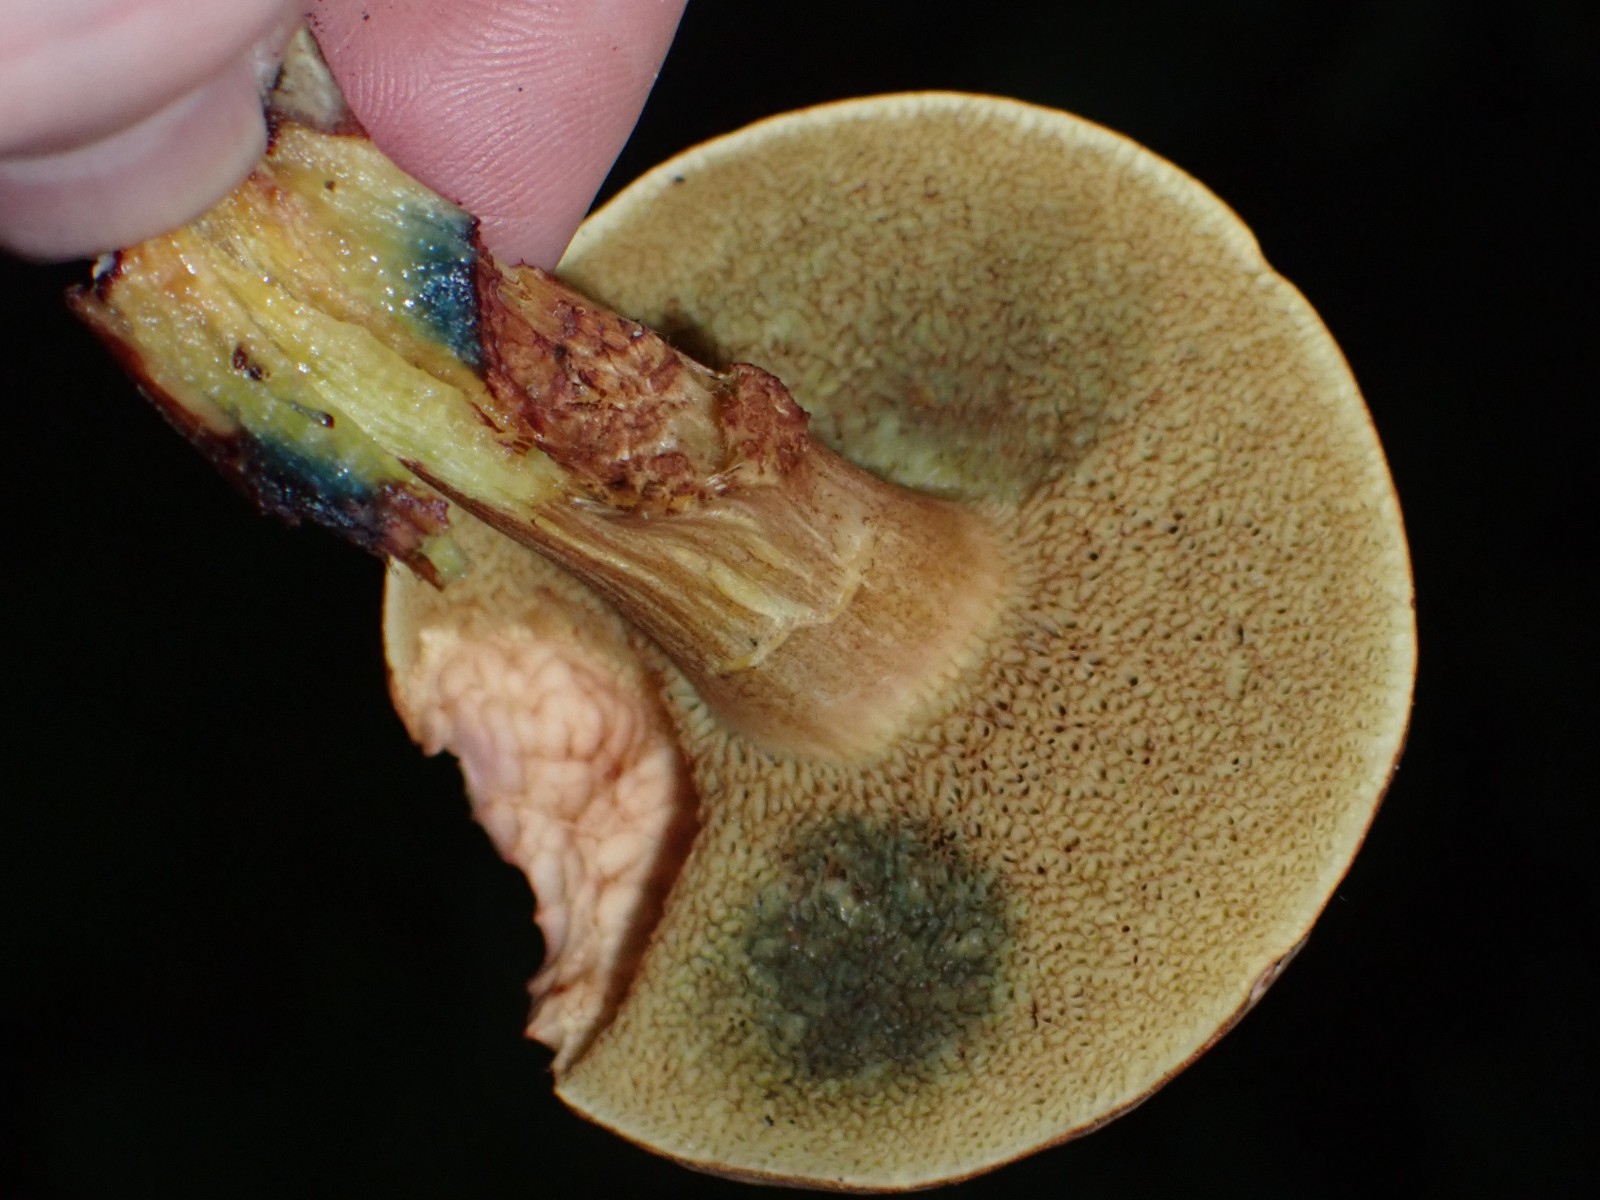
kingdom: Fungi
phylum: Basidiomycota
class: Agaricomycetes
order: Boletales
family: Boletaceae
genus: Xerocomellus
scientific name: Xerocomellus cisalpinus
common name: finsprukken rørhat
